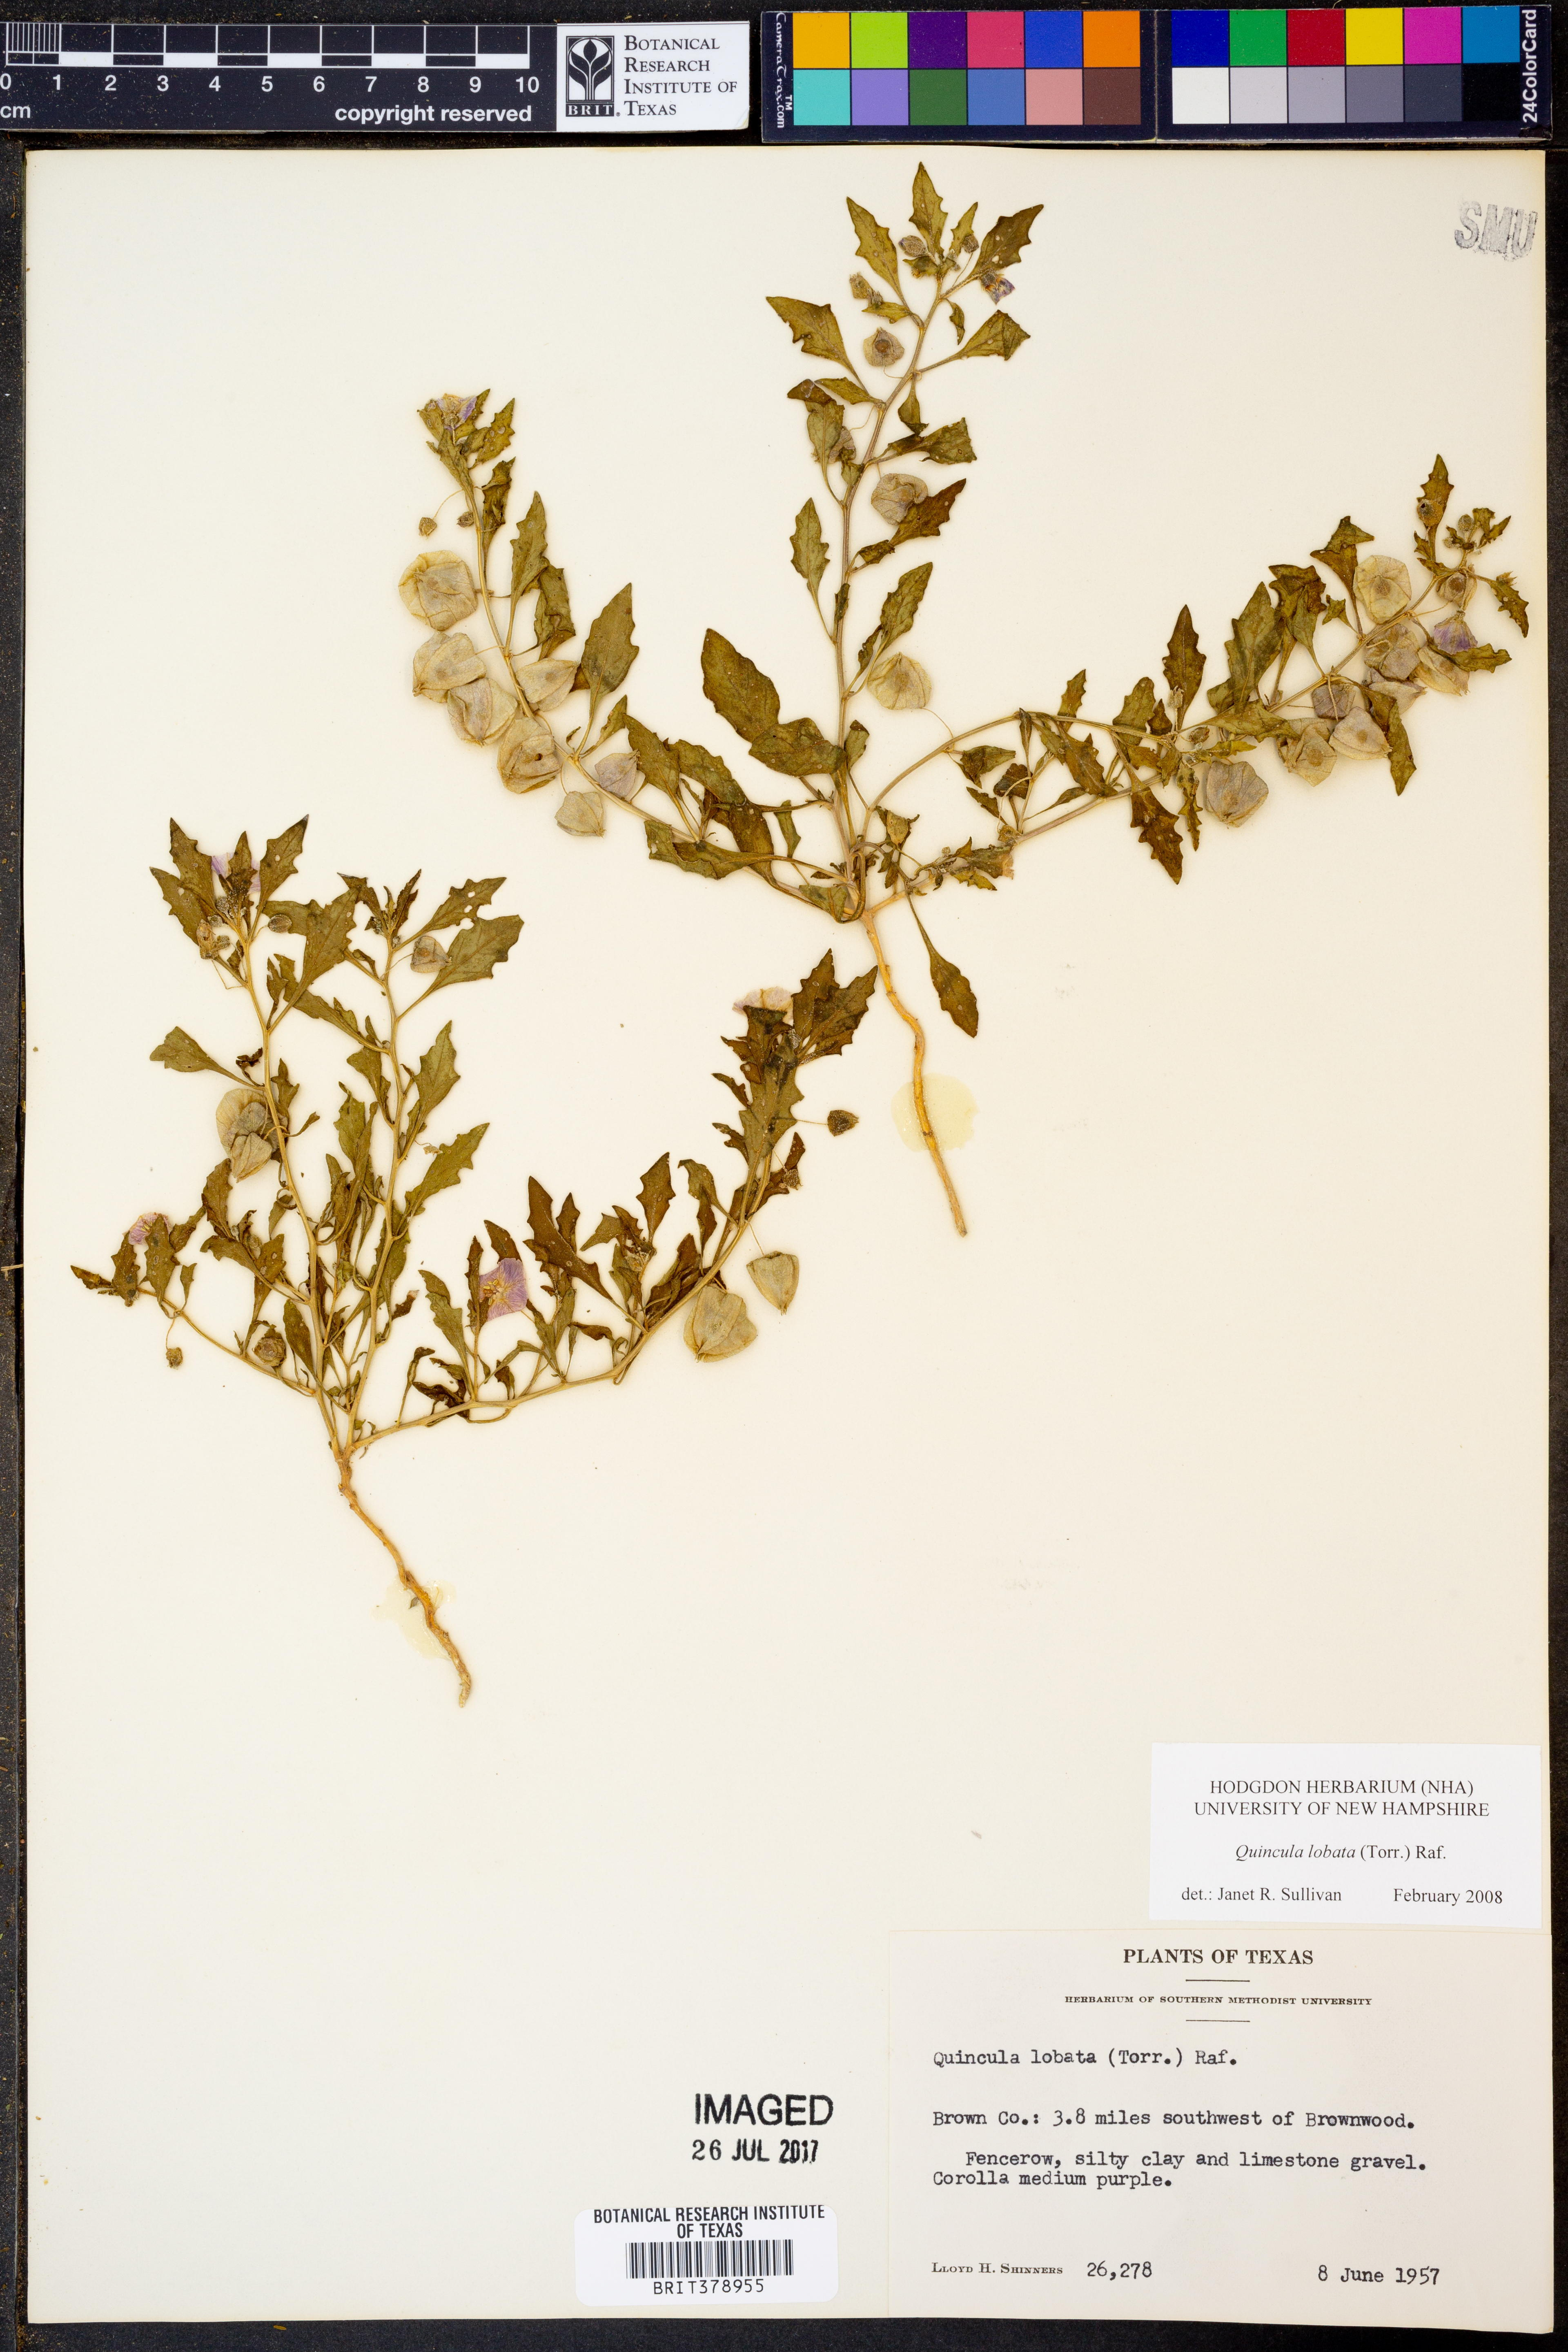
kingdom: Plantae
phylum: Tracheophyta
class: Magnoliopsida
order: Solanales
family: Solanaceae
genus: Quincula
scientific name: Quincula lobata
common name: Purple-ground-cherry
